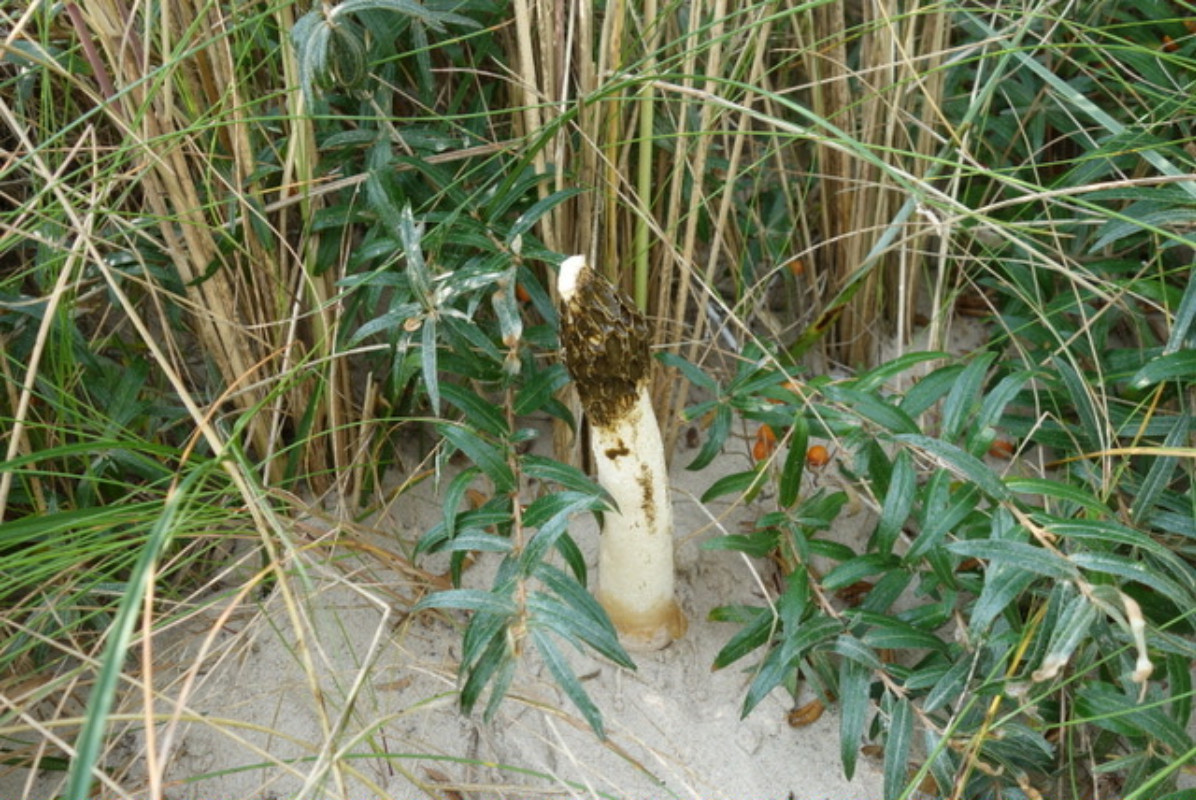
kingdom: Fungi
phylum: Basidiomycota
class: Agaricomycetes
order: Phallales
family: Phallaceae
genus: Phallus
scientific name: Phallus hadriani
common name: sand-stinksvamp
